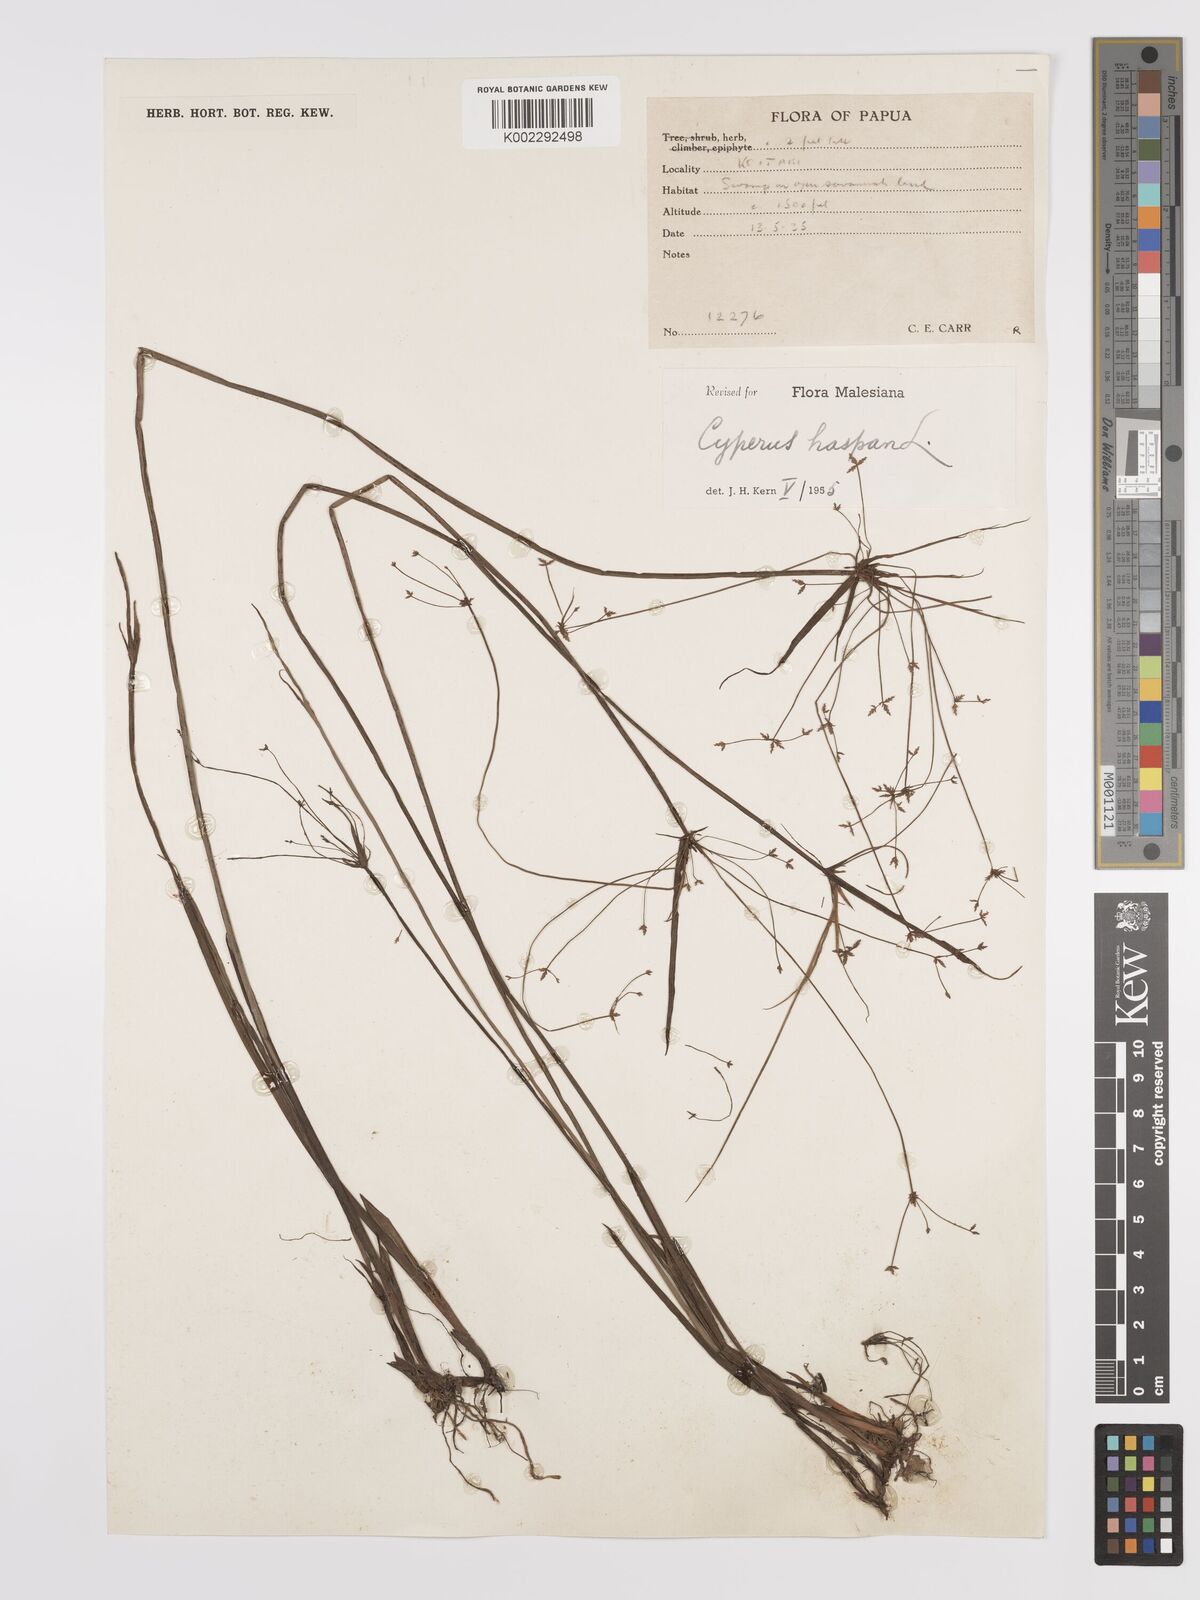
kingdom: Plantae
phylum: Tracheophyta
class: Liliopsida
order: Poales
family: Cyperaceae
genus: Cyperus
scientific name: Cyperus haspan
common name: Haspan flatsedge
